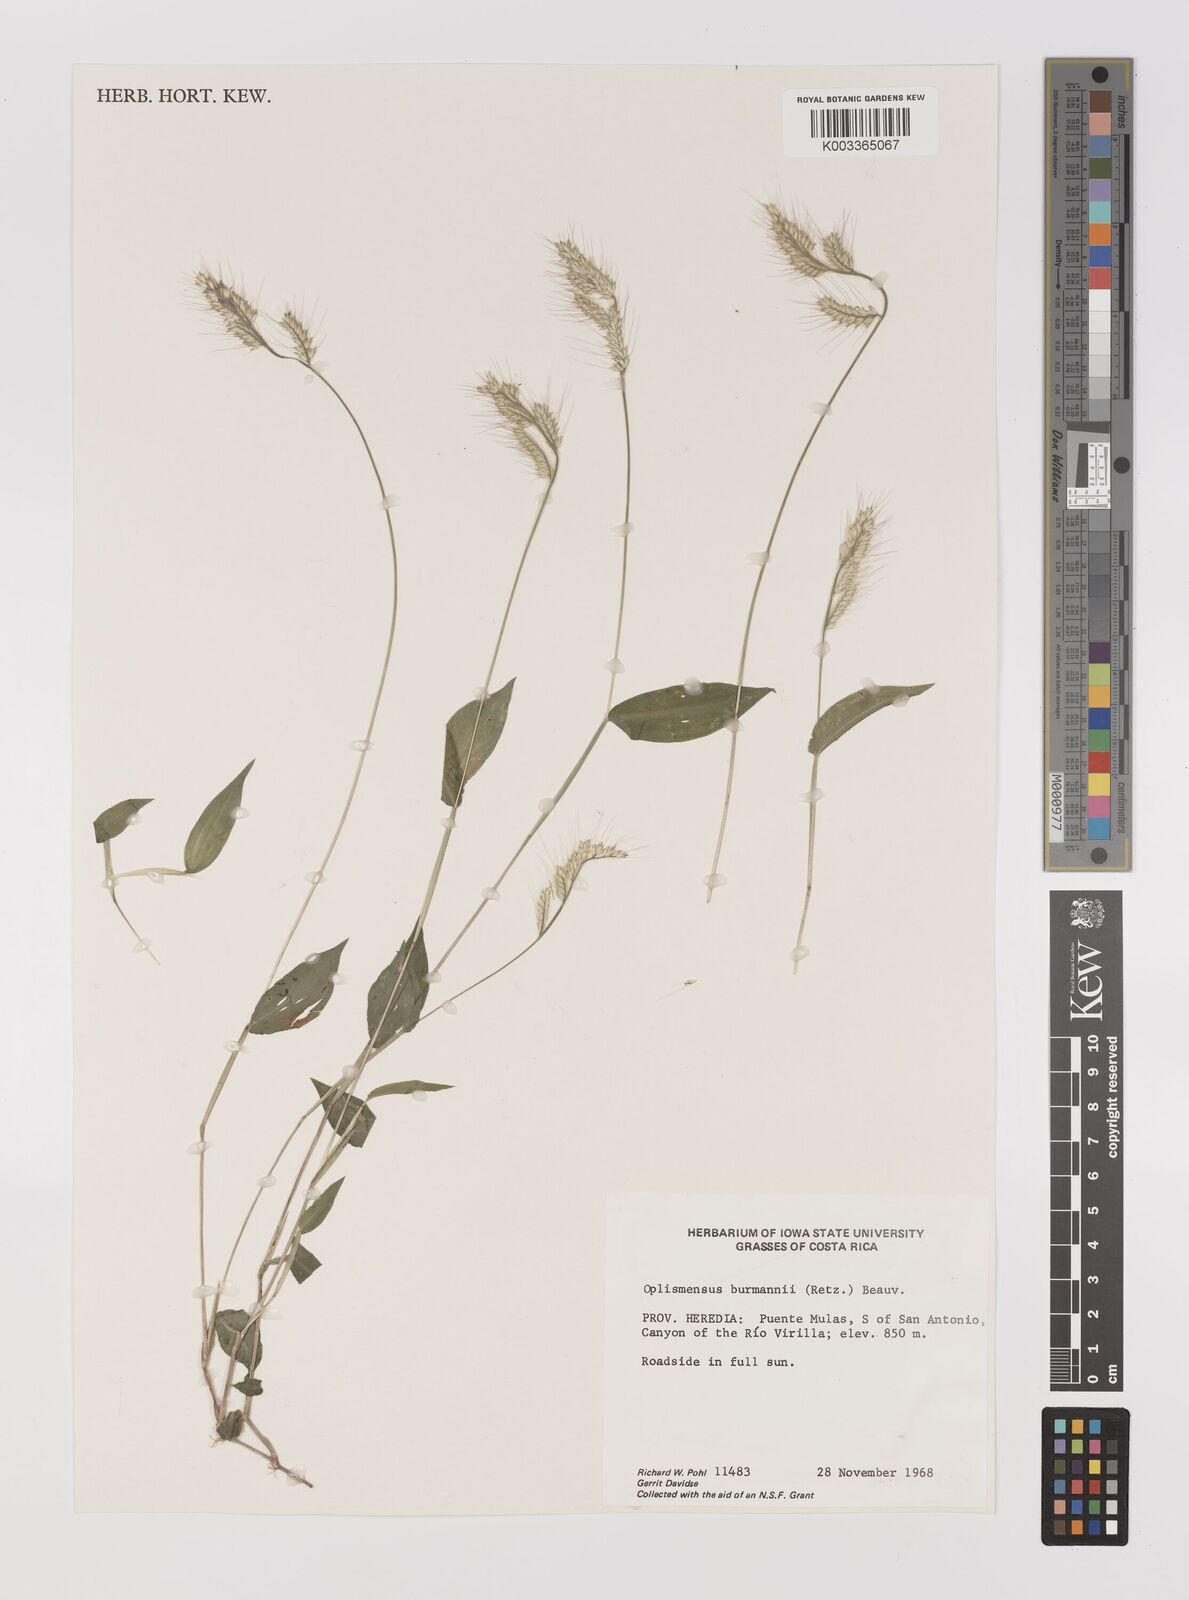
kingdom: Plantae
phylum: Tracheophyta
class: Liliopsida
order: Poales
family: Poaceae
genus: Oplismenus
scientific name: Oplismenus burmanni
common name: Burmann's basketgrass
